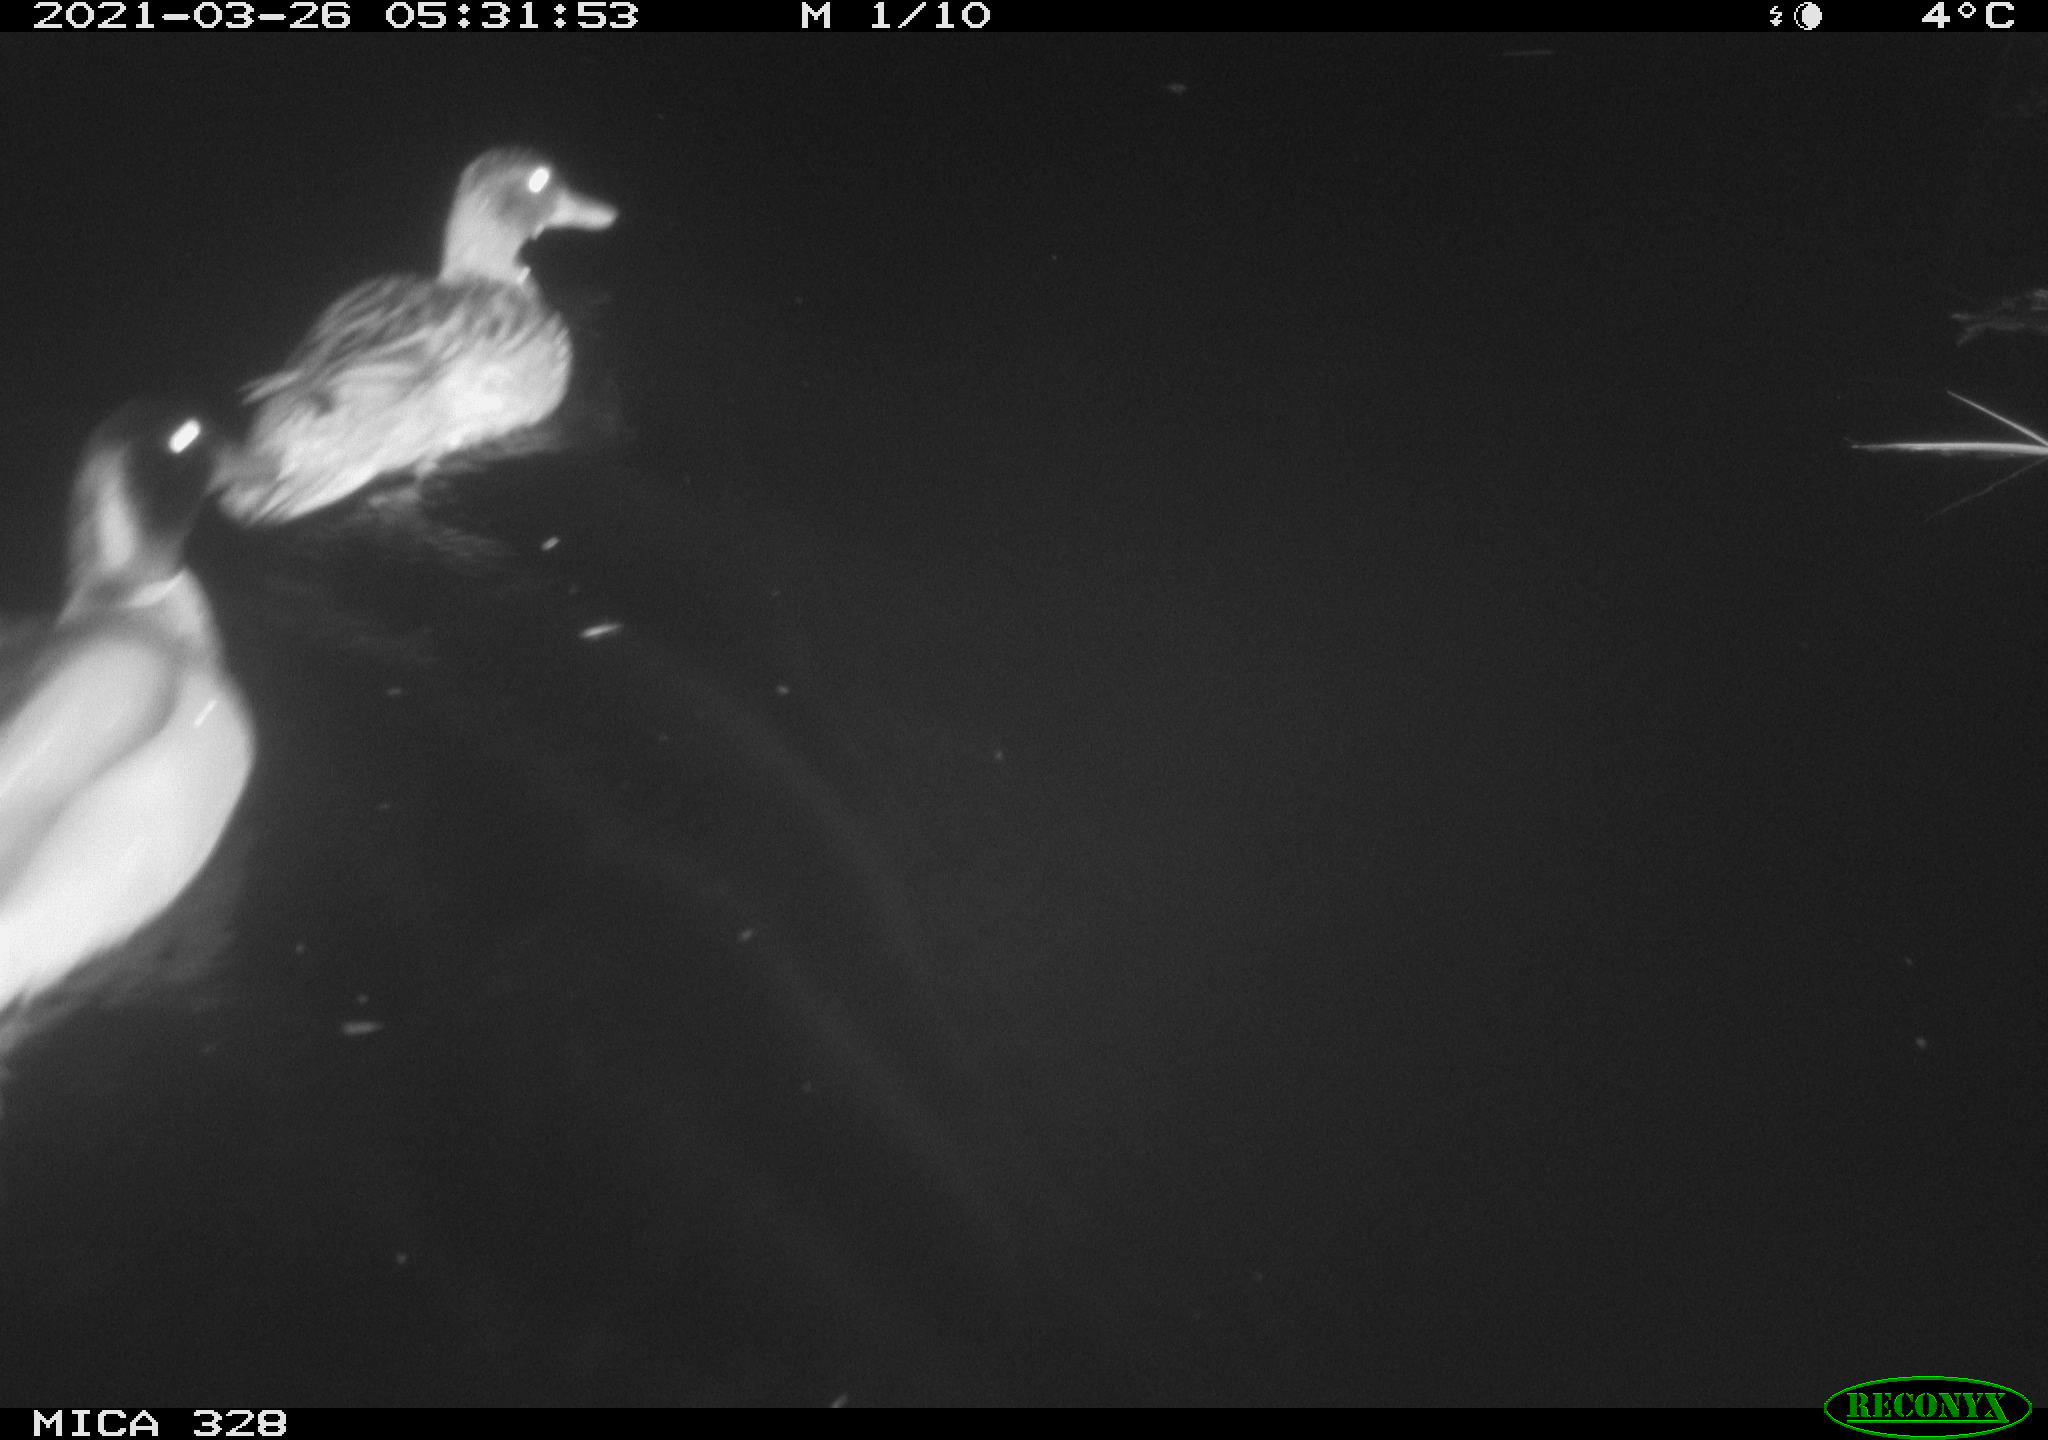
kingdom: Animalia
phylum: Chordata
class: Aves
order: Anseriformes
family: Anatidae
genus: Anas
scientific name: Anas platyrhynchos
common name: Mallard
